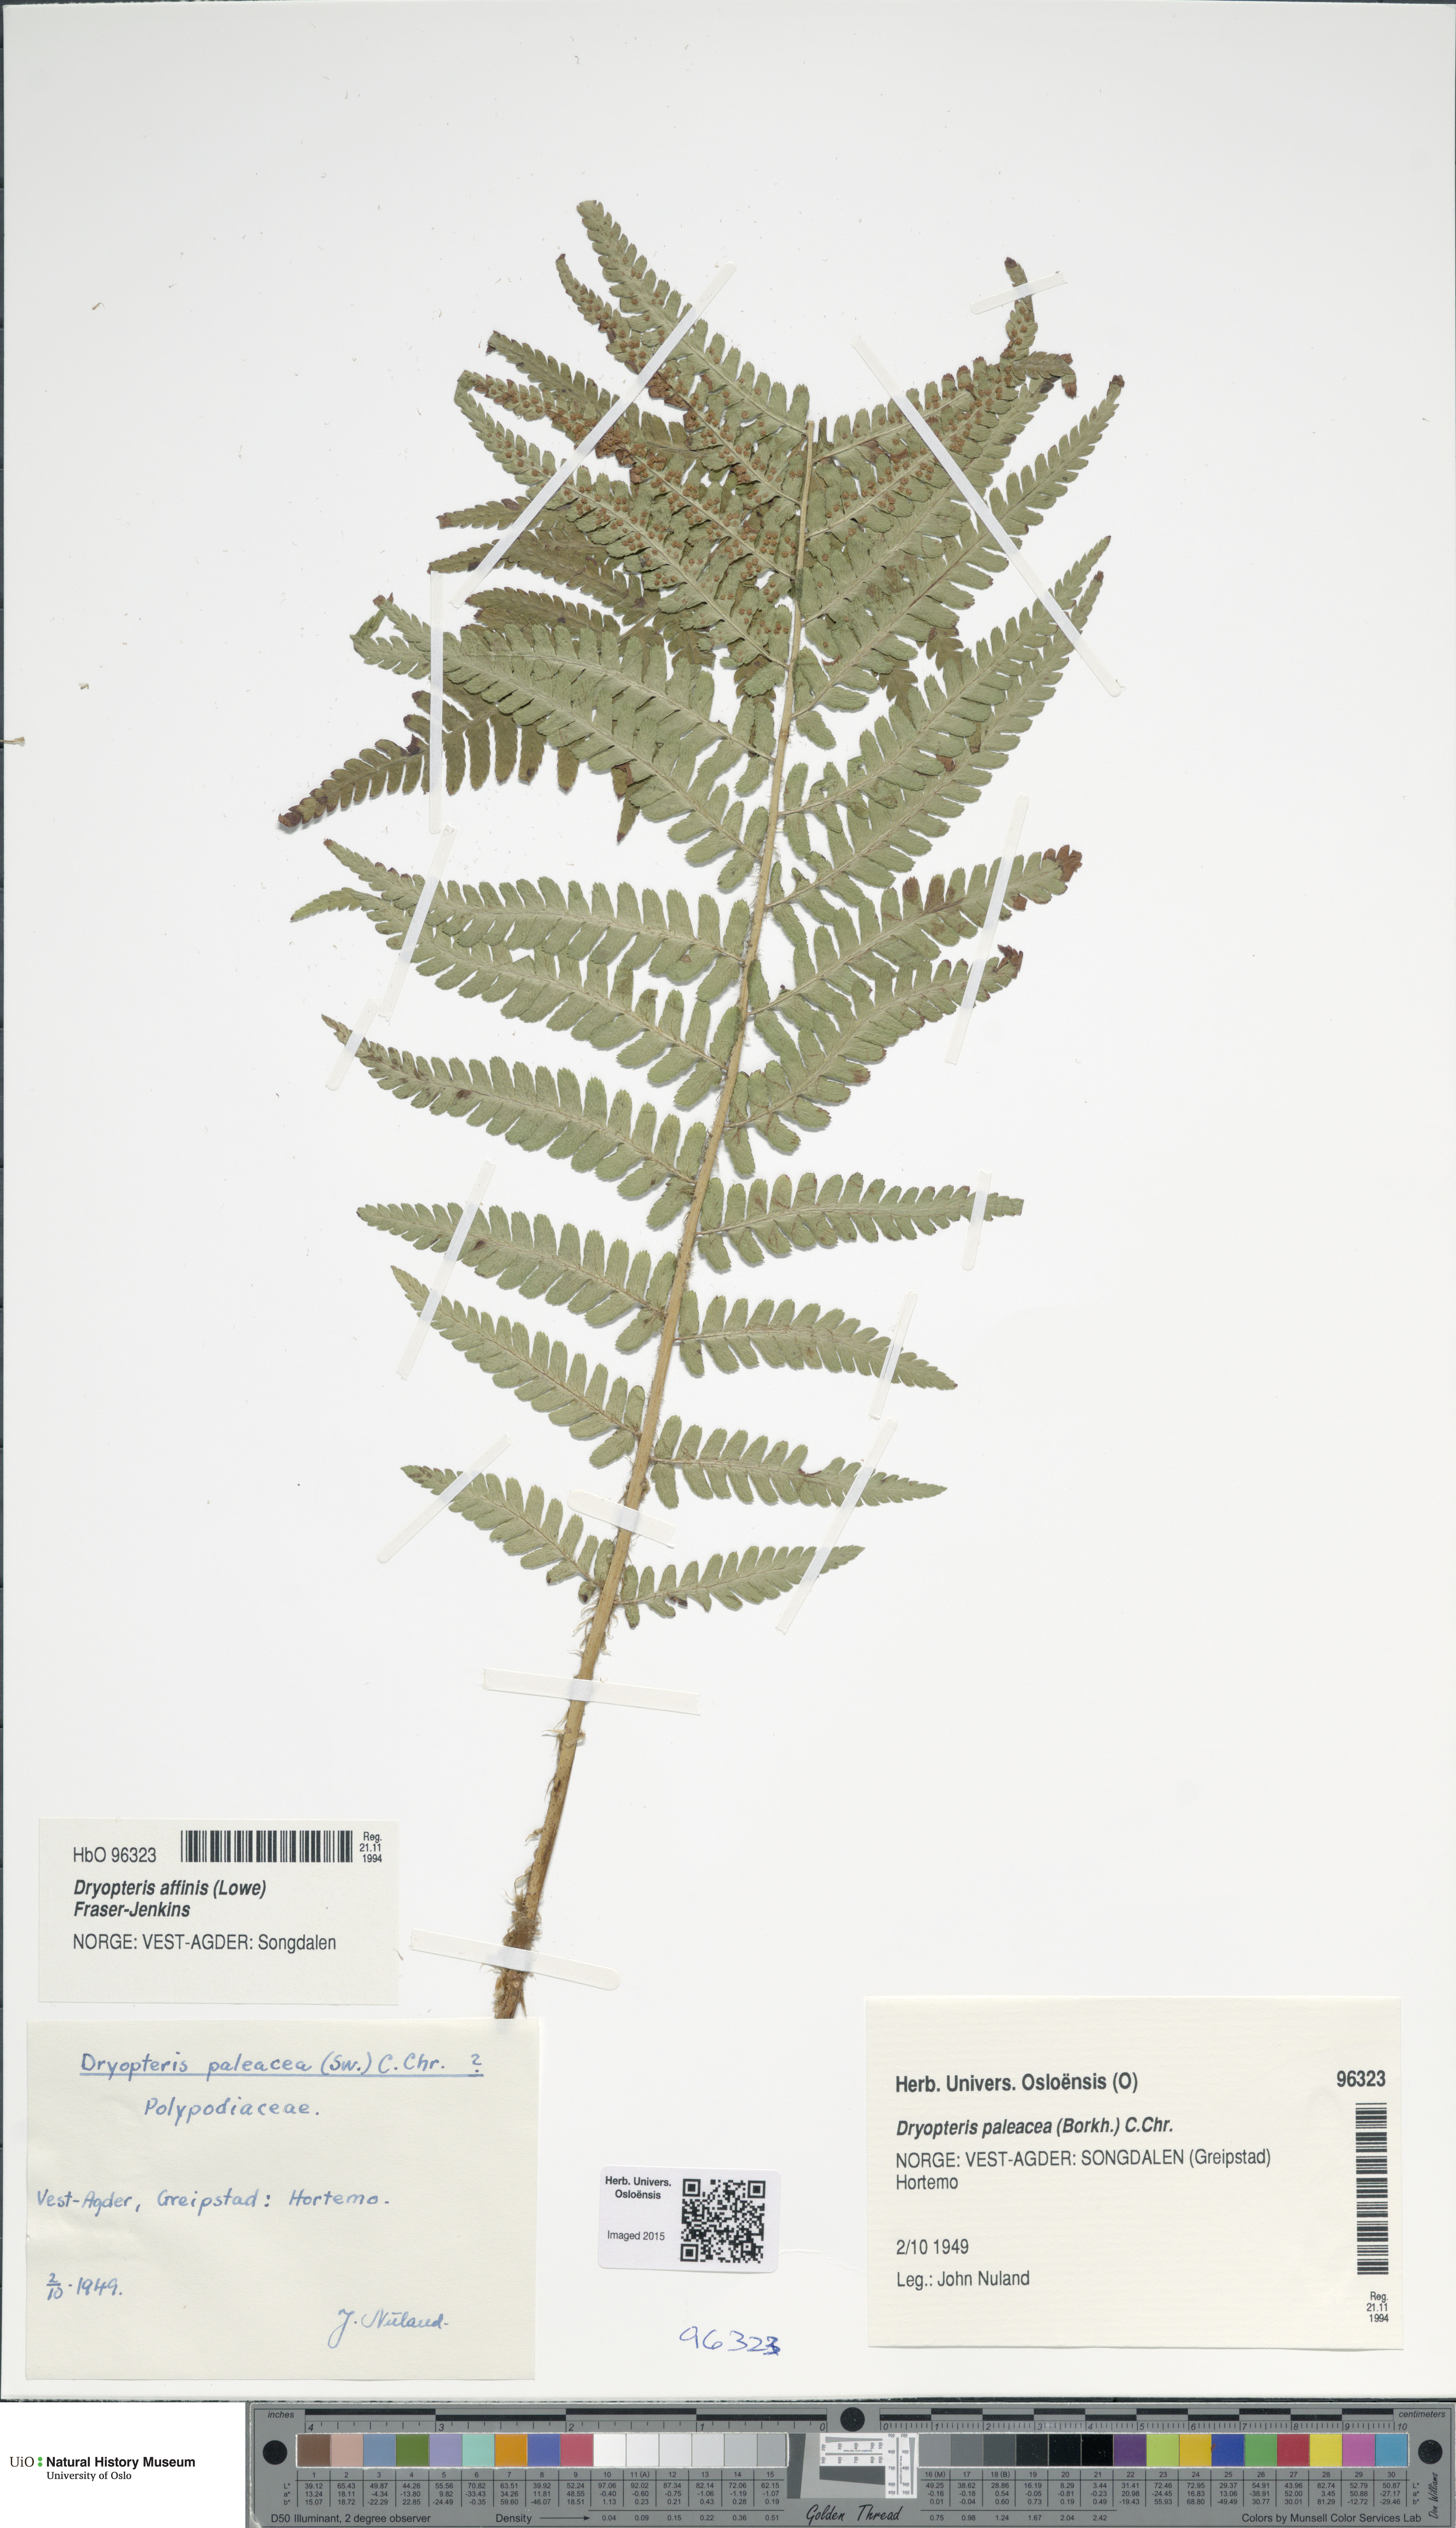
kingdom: Plantae
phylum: Tracheophyta
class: Polypodiopsida
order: Polypodiales
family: Dryopteridaceae
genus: Dryopteris
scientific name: Dryopteris wallichiana
